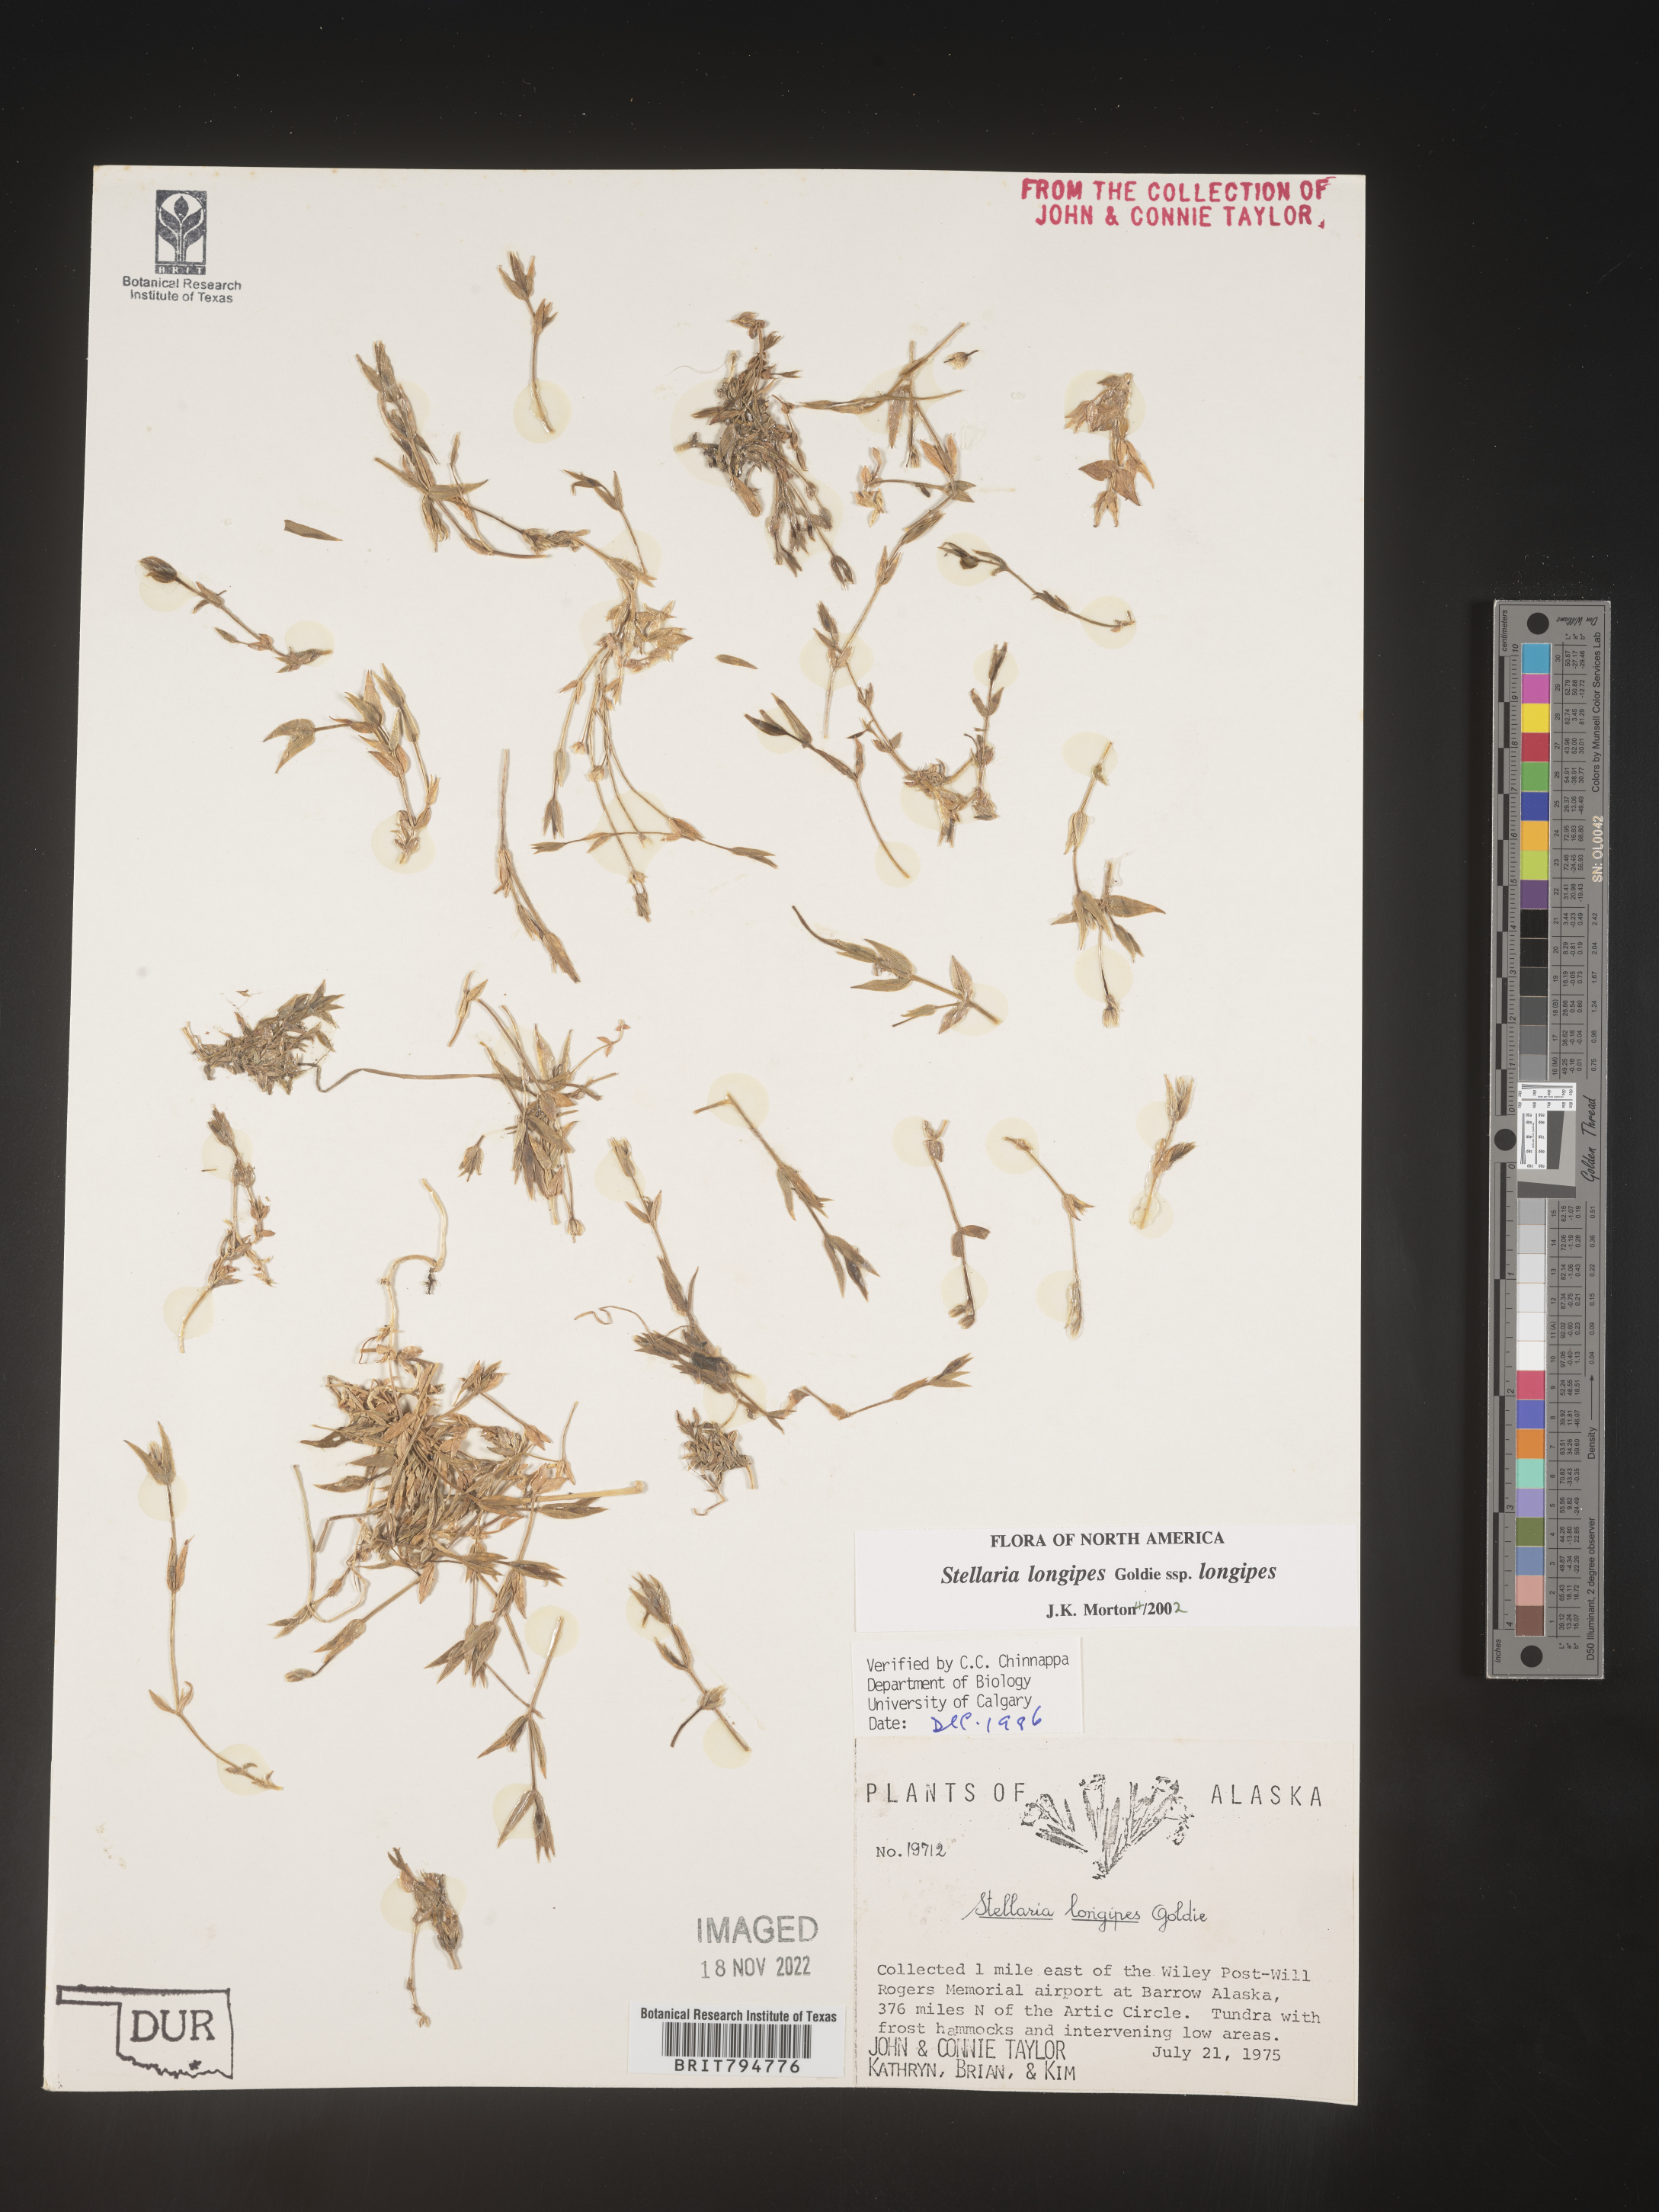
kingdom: Plantae
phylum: Tracheophyta
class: Magnoliopsida
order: Caryophyllales
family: Caryophyllaceae
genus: Stellaria
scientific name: Stellaria longipes
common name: Goldie's starwort
